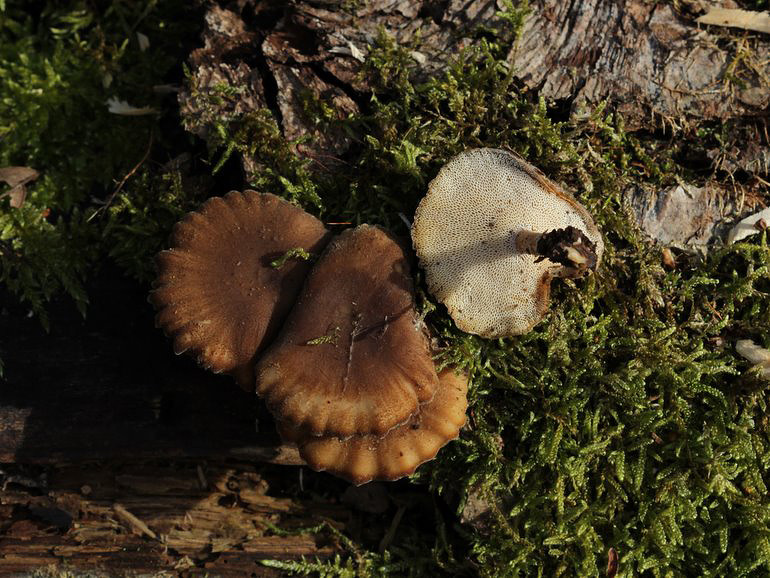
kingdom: Fungi
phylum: Basidiomycota
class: Agaricomycetes
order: Polyporales
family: Polyporaceae
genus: Lentinus
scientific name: Lentinus brumalis
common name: vinter-stilkporesvamp
